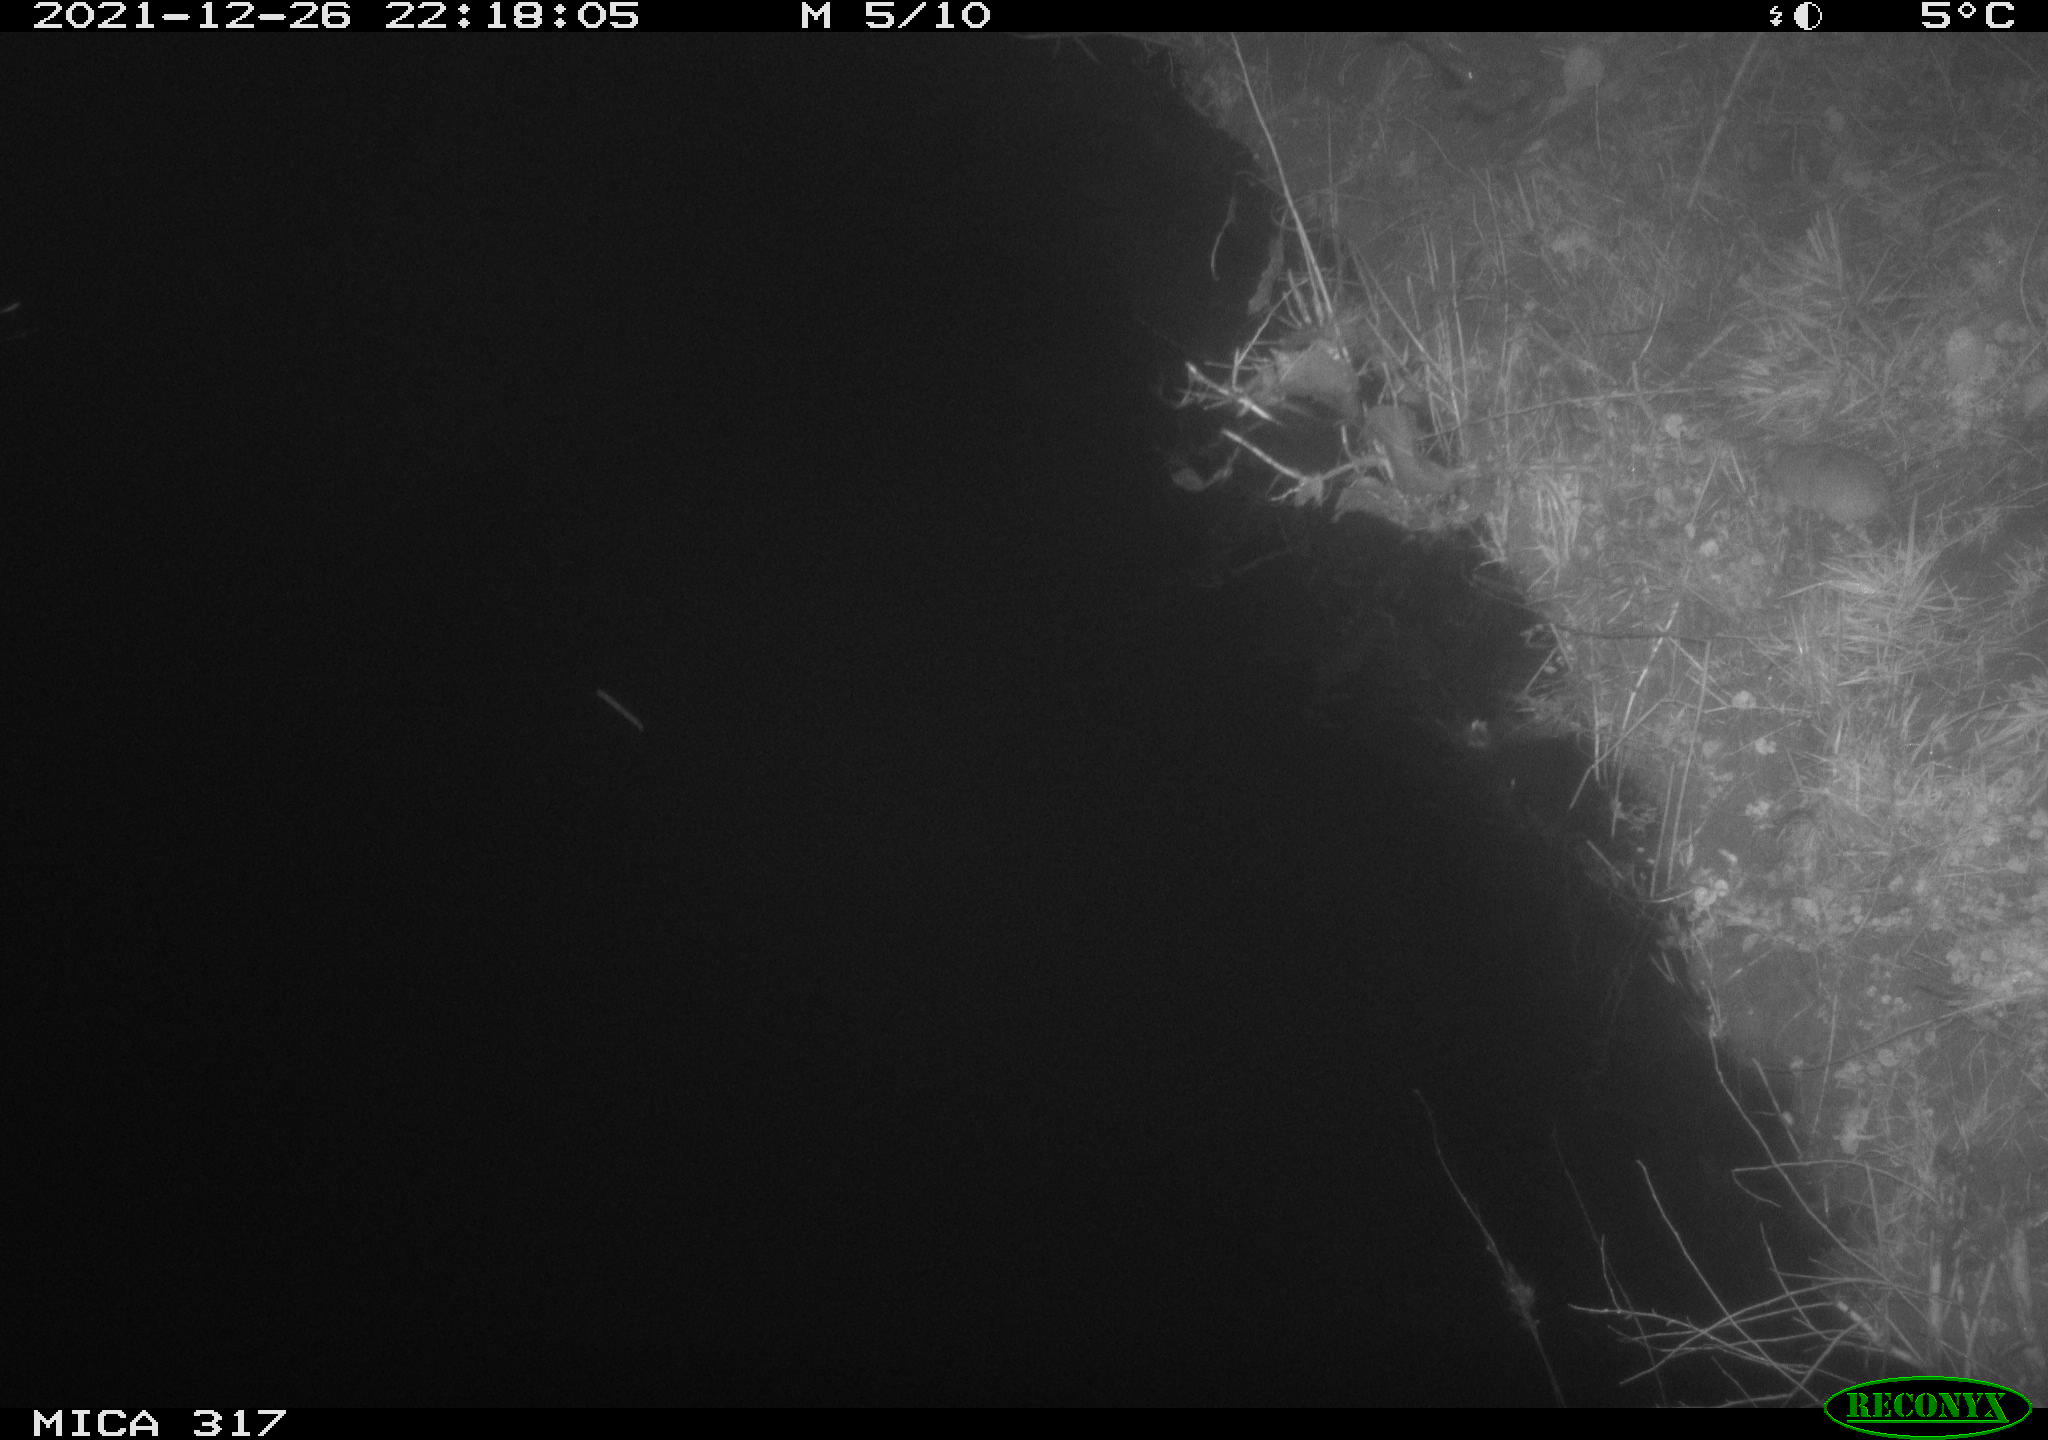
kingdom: Animalia
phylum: Chordata
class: Mammalia
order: Rodentia
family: Muridae
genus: Rattus
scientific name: Rattus norvegicus
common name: Brown rat
